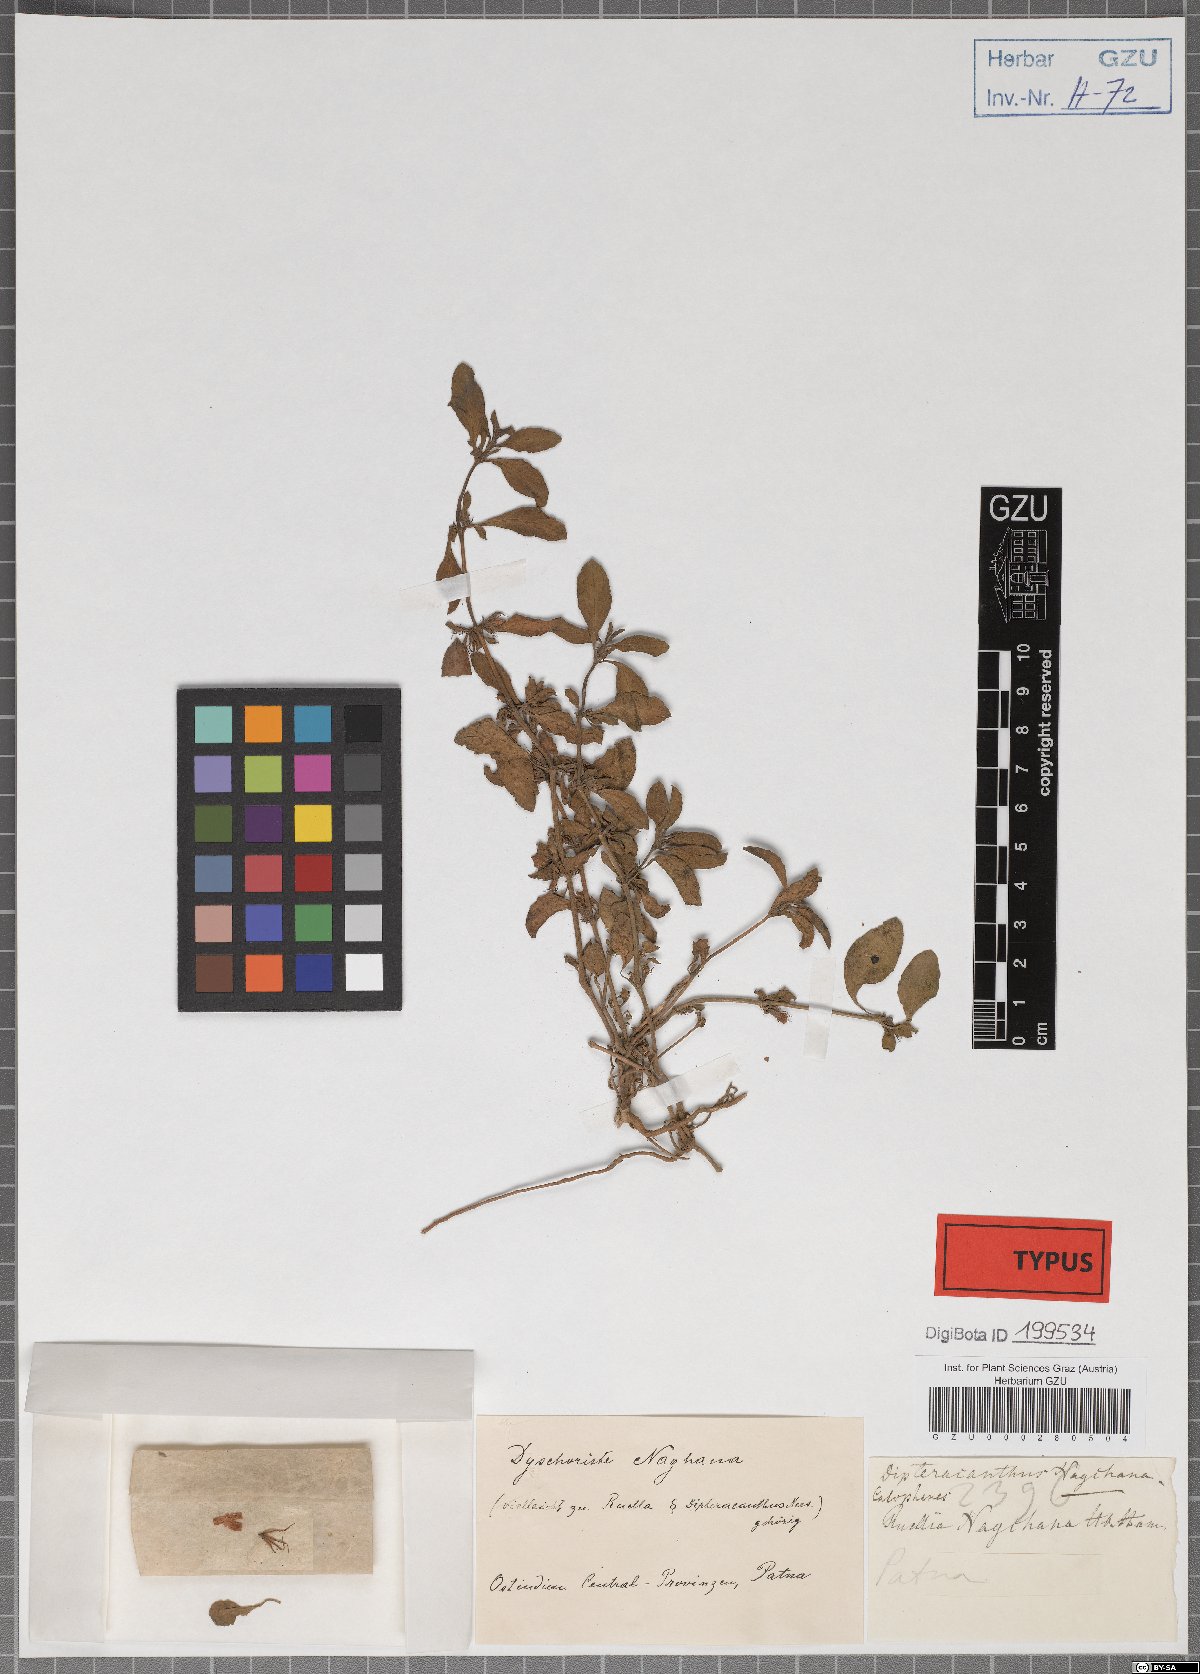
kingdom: Plantae
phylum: Tracheophyta
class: Magnoliopsida
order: Lamiales
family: Acanthaceae
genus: Dyschoriste
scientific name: Dyschoriste nagchana
